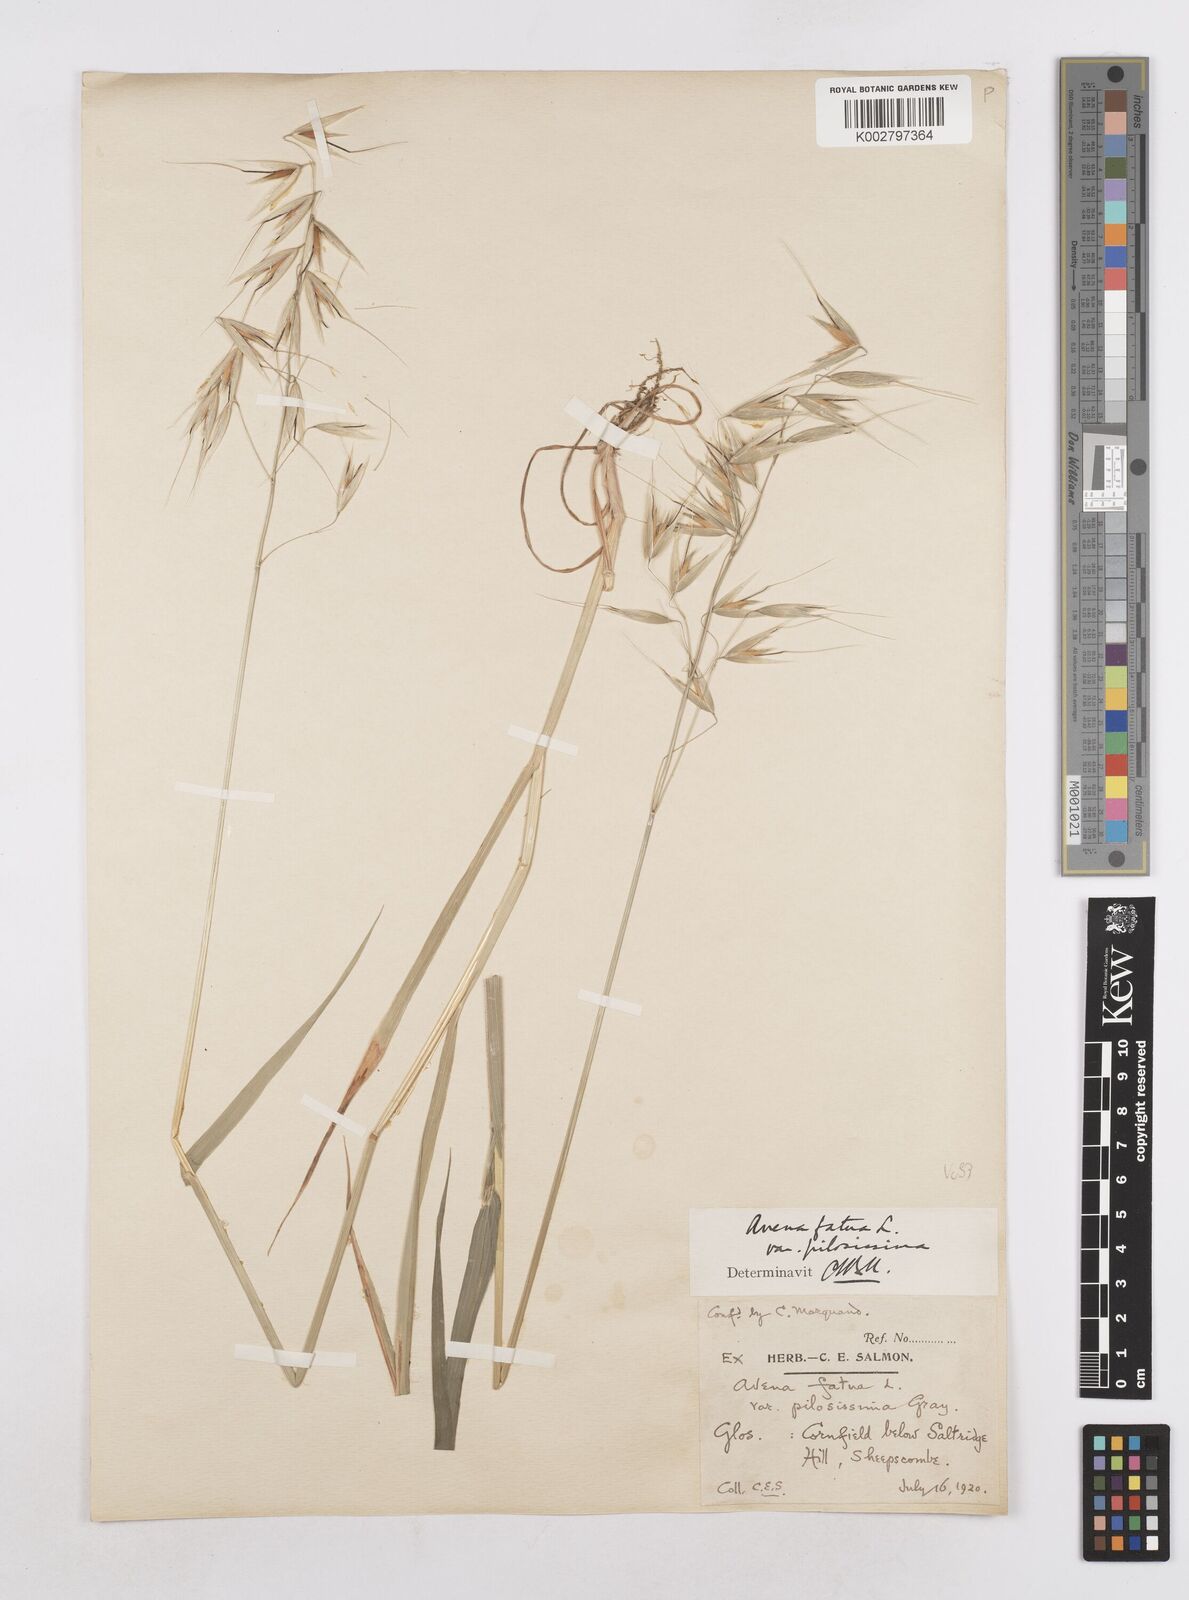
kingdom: Plantae
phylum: Tracheophyta
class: Liliopsida
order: Poales
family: Poaceae
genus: Avena
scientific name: Avena fatua
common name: Wild oat
